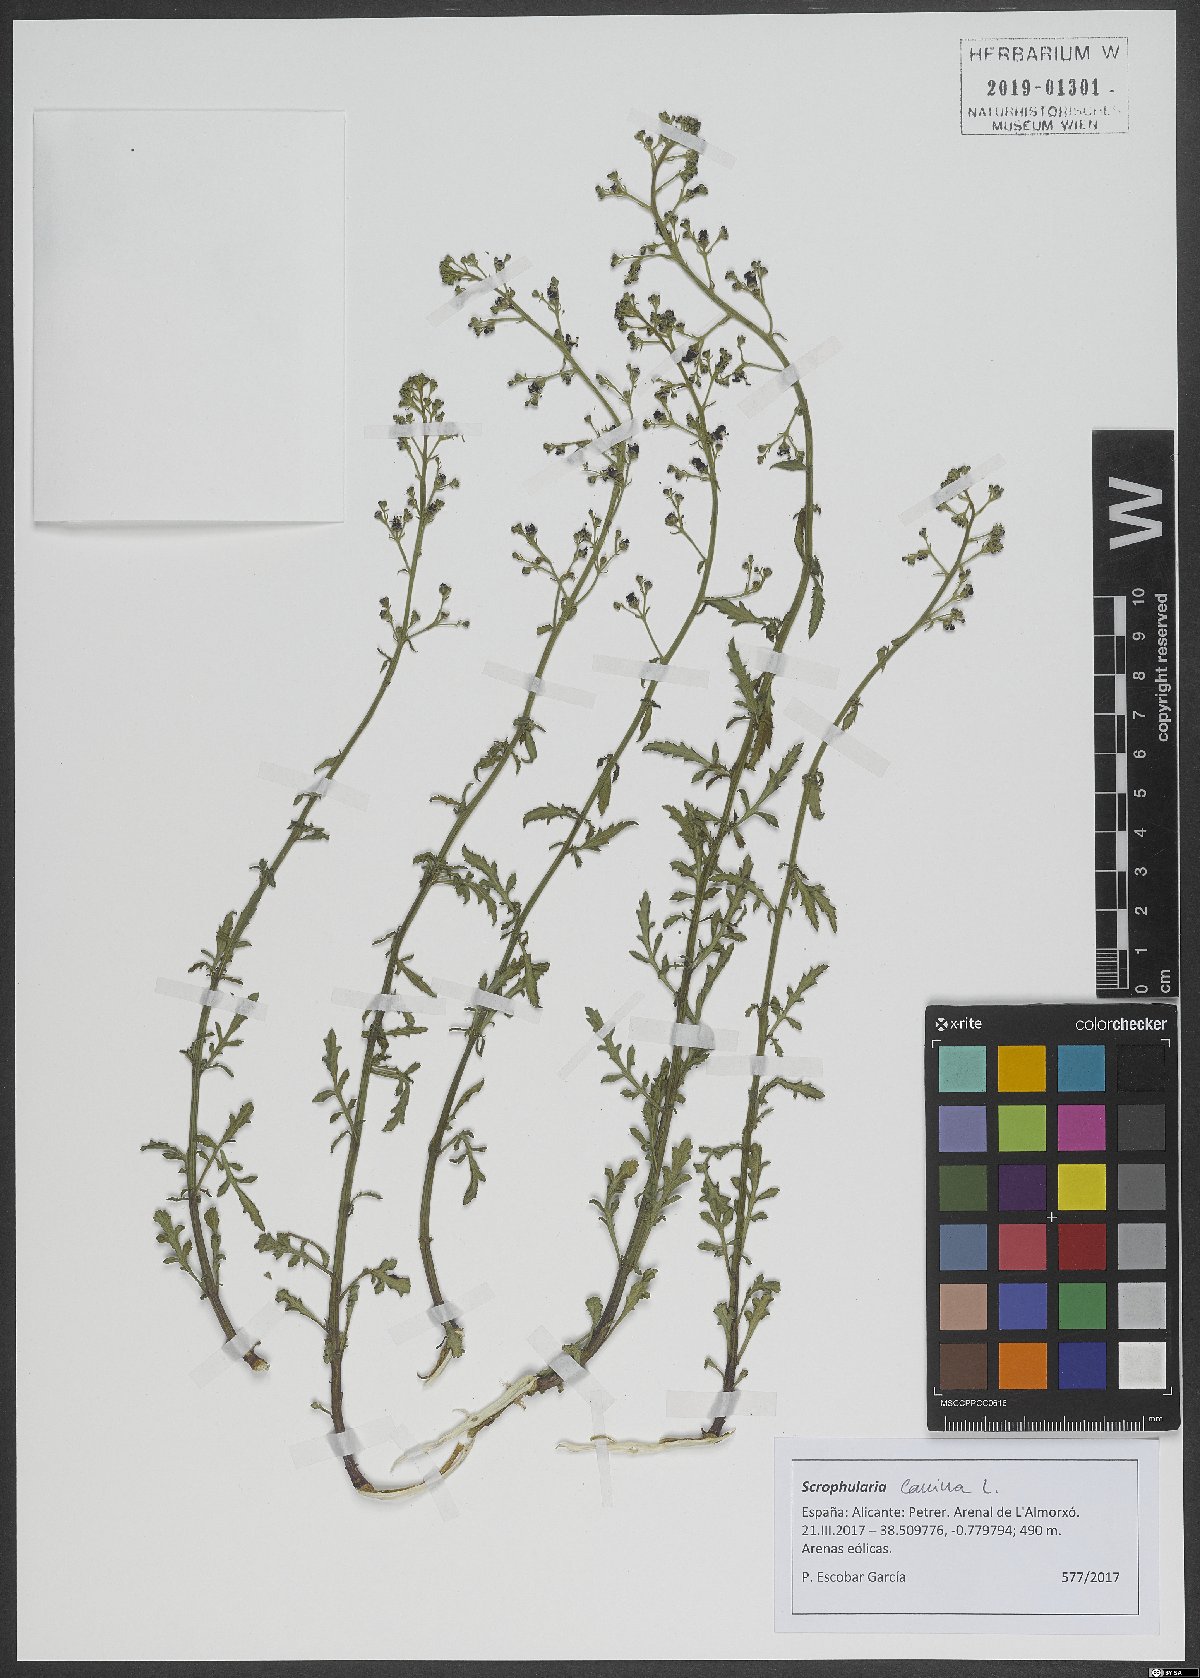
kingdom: Plantae
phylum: Tracheophyta
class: Magnoliopsida
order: Lamiales
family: Scrophulariaceae
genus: Scrophularia
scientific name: Scrophularia canina
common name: French figwort
